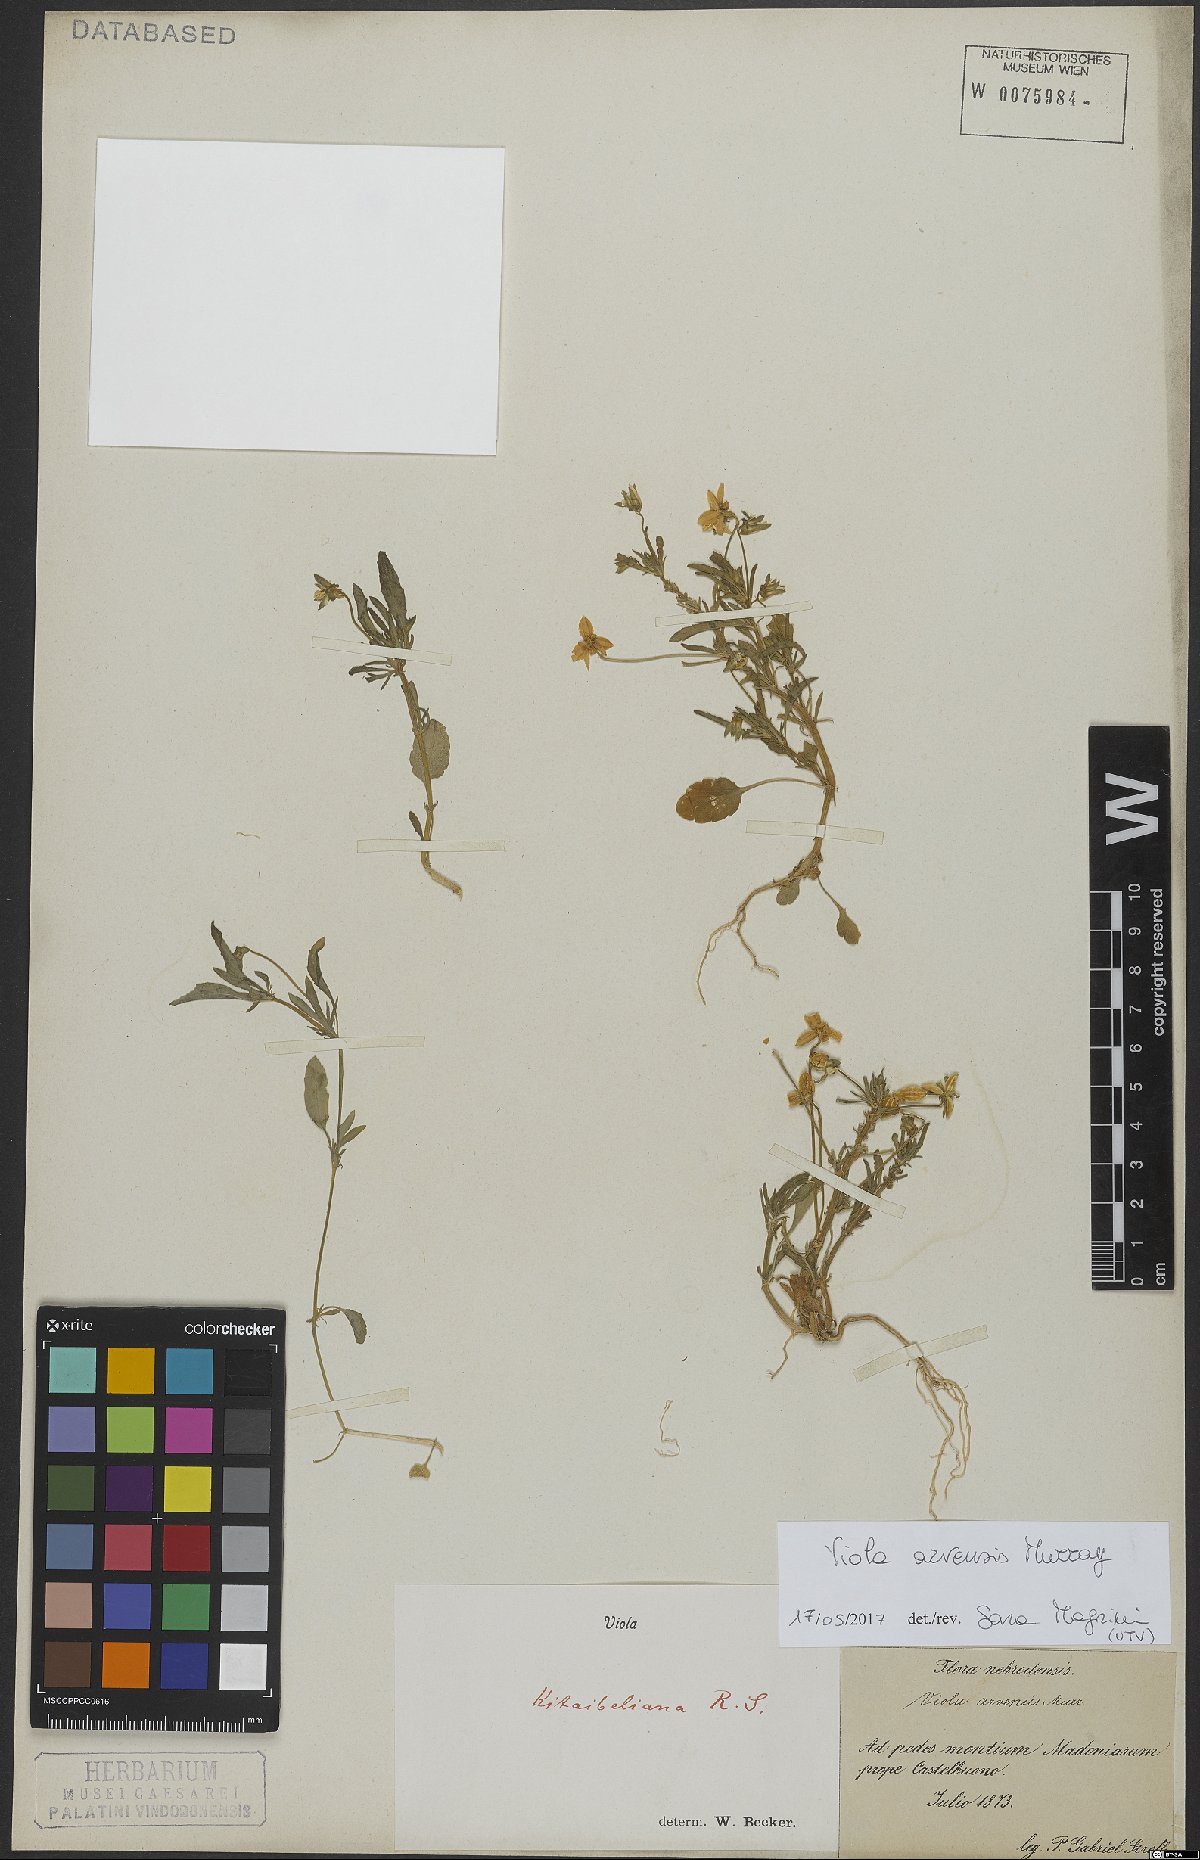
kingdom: Plantae
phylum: Tracheophyta
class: Magnoliopsida
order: Malpighiales
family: Violaceae
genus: Viola
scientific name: Viola arvensis
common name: Field pansy
